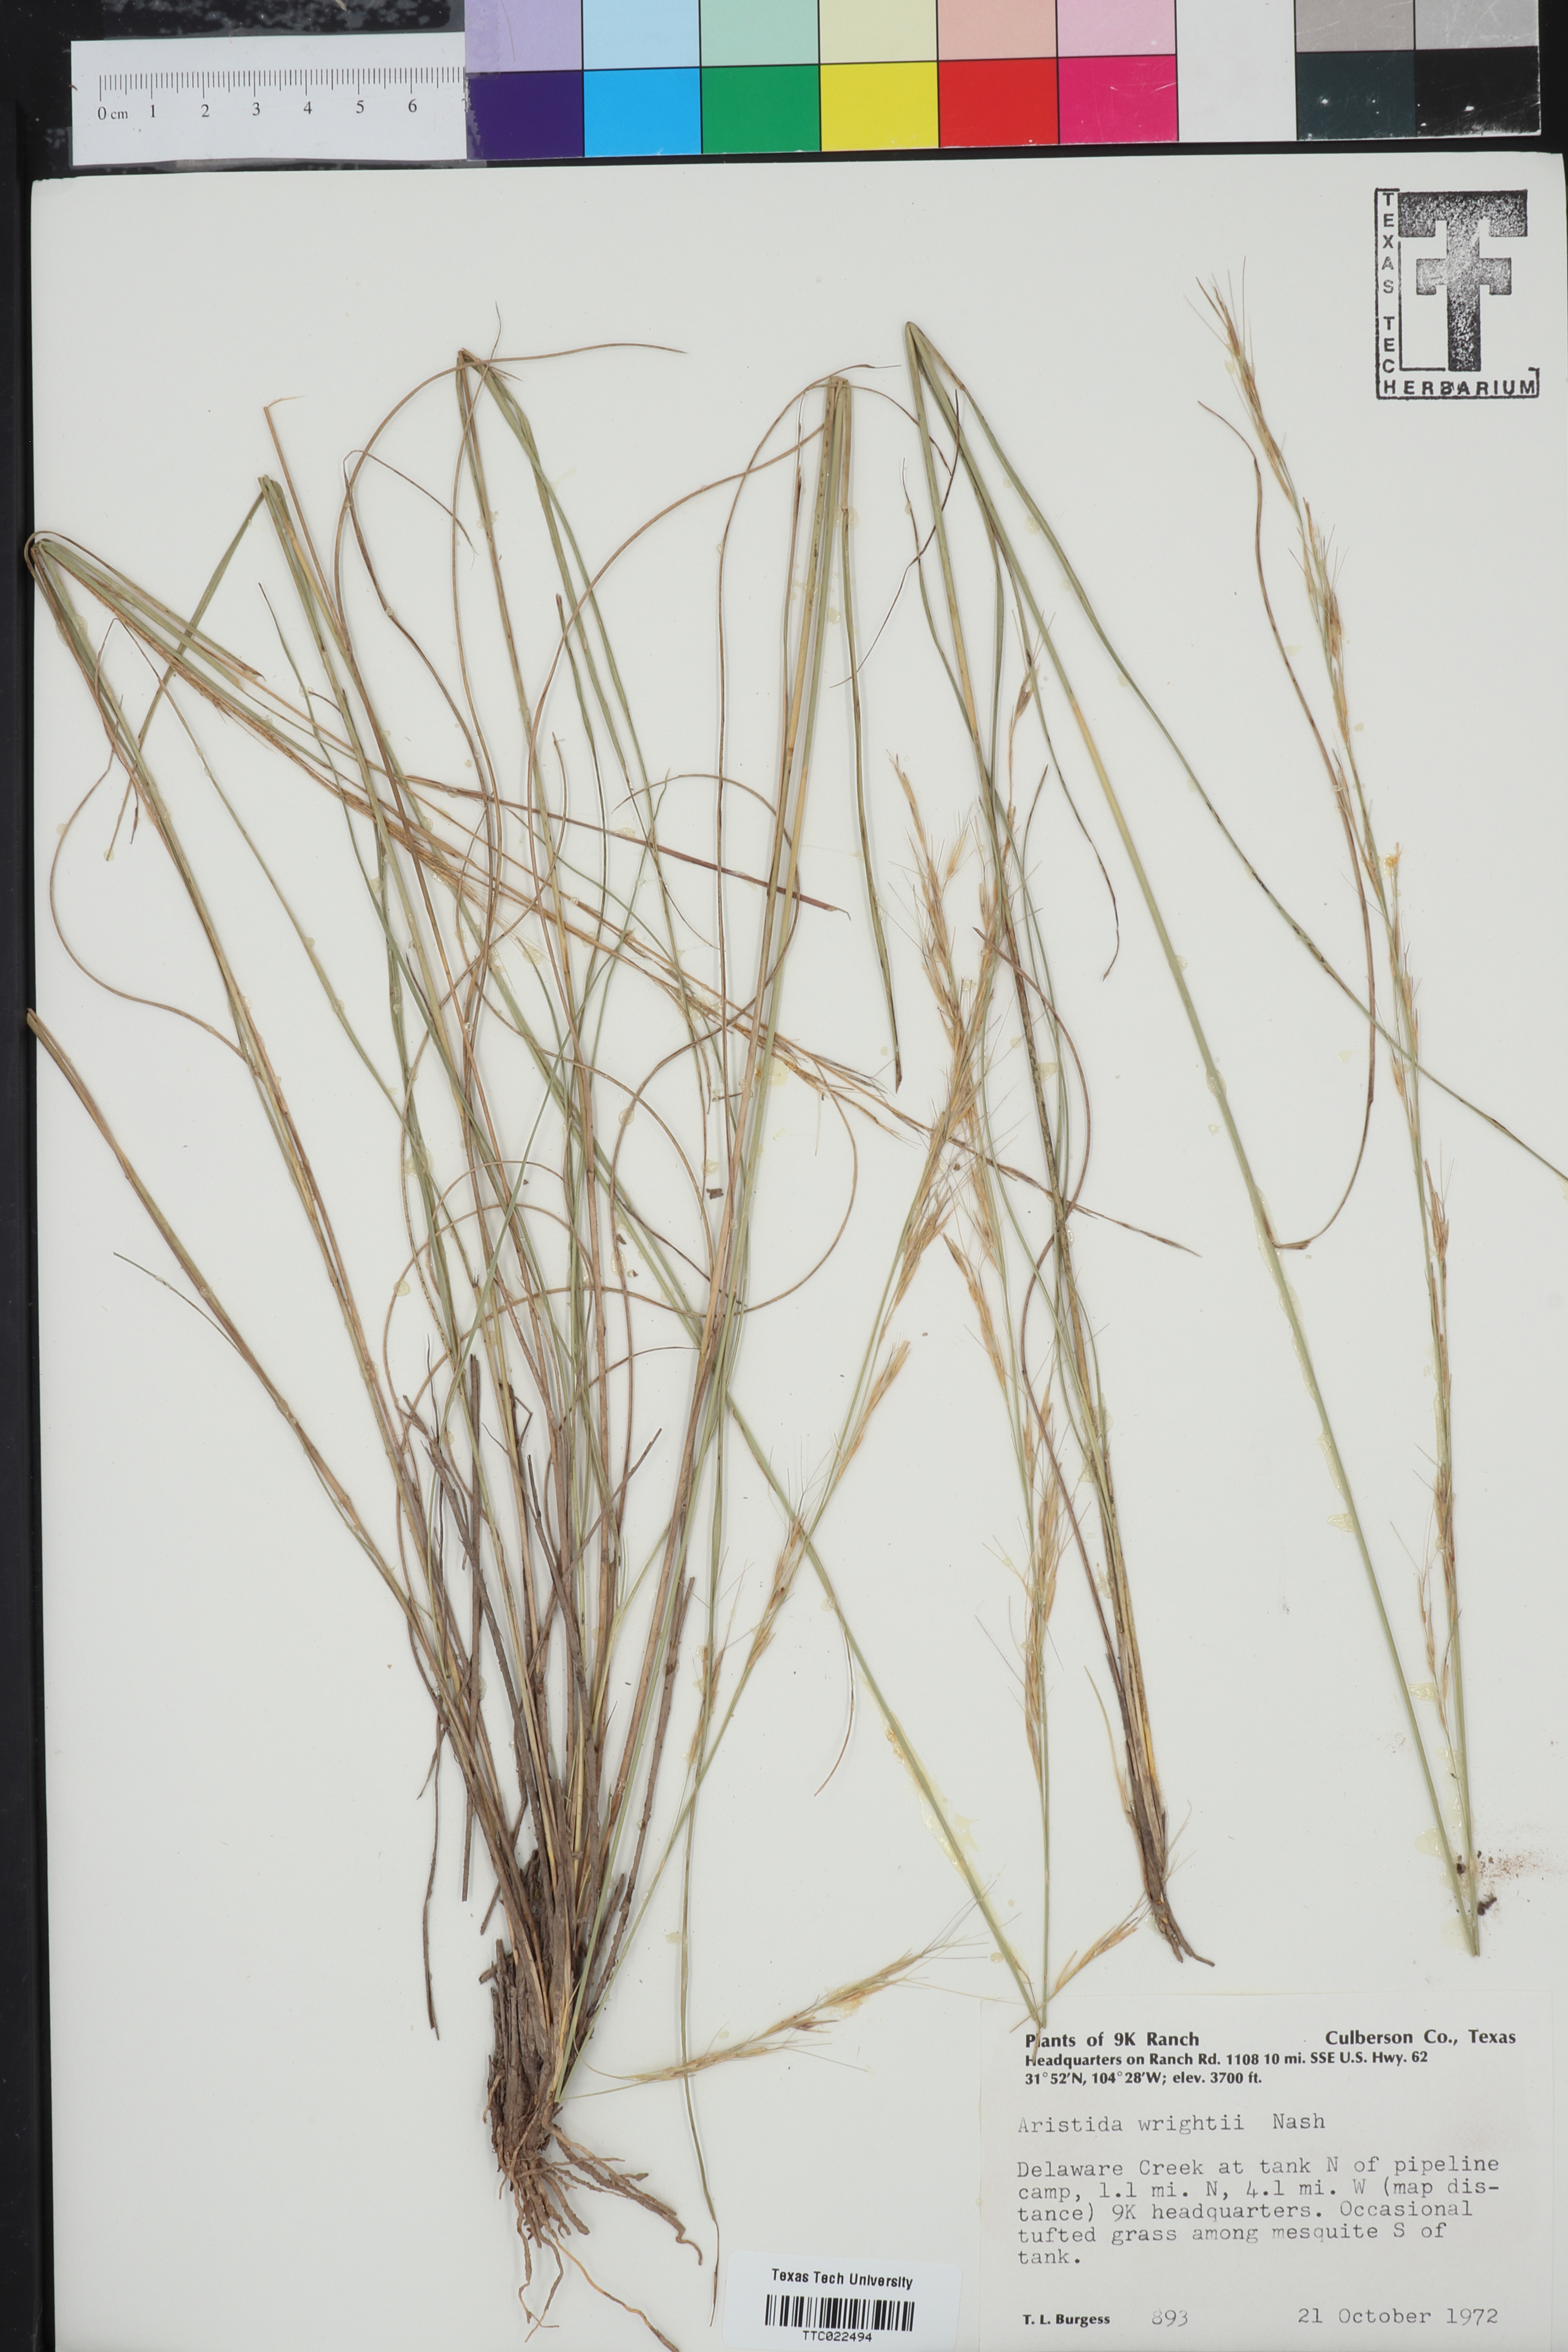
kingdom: Plantae
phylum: Tracheophyta
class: Liliopsida
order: Poales
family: Poaceae
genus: Aristida
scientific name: Aristida wrightii
